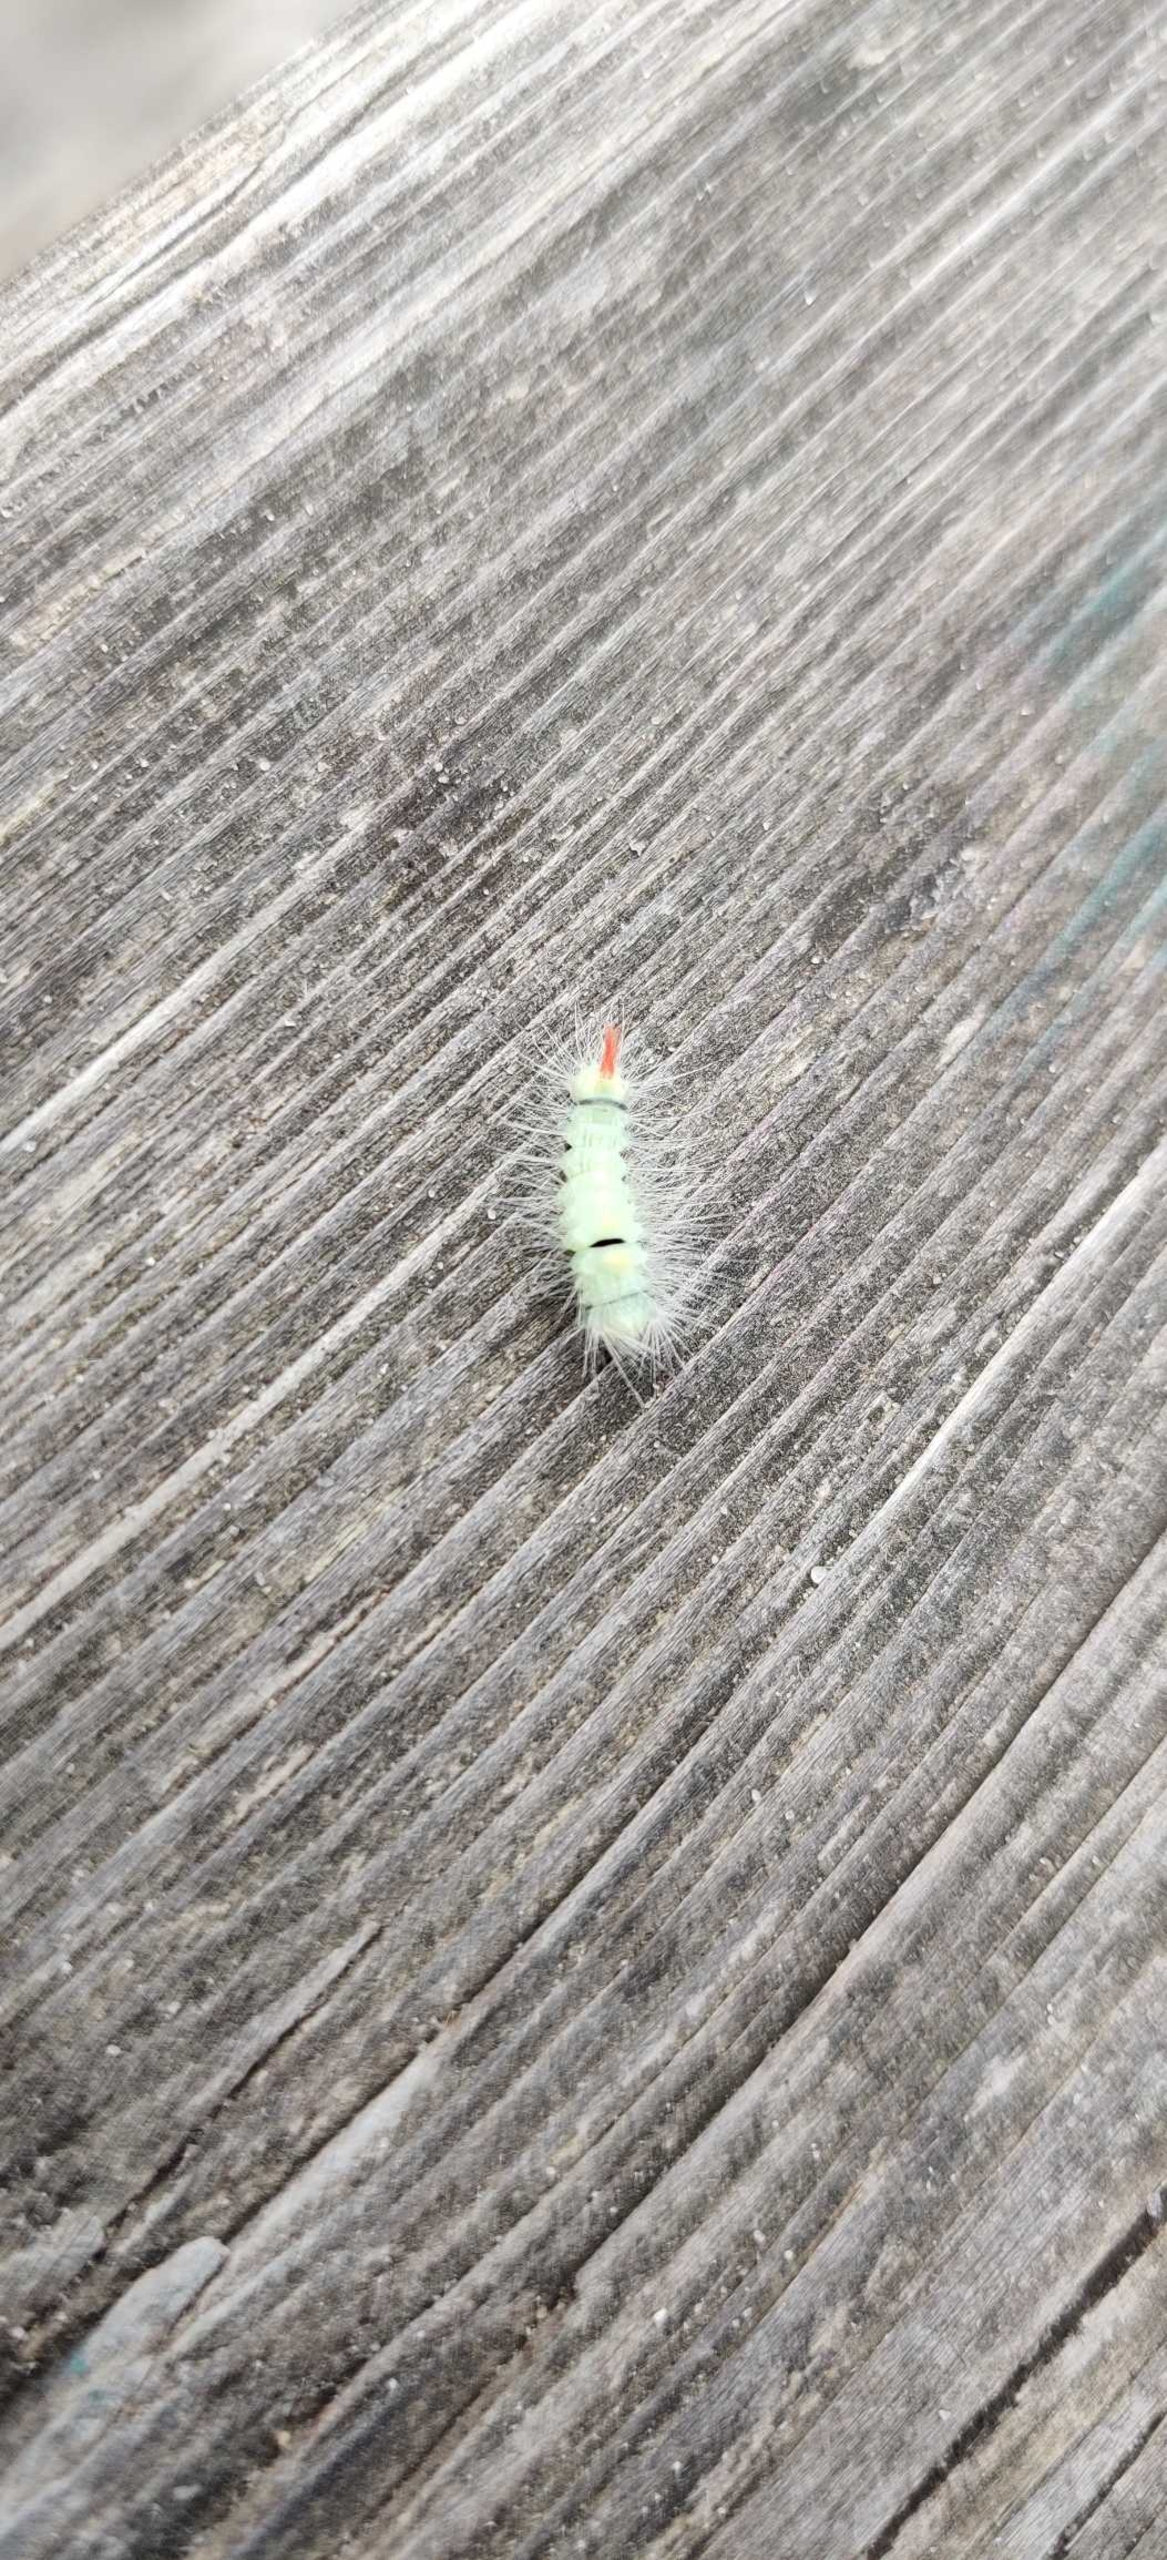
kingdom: Animalia
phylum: Arthropoda
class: Insecta
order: Lepidoptera
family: Erebidae
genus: Calliteara
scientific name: Calliteara pudibunda
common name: Bøgenonne
